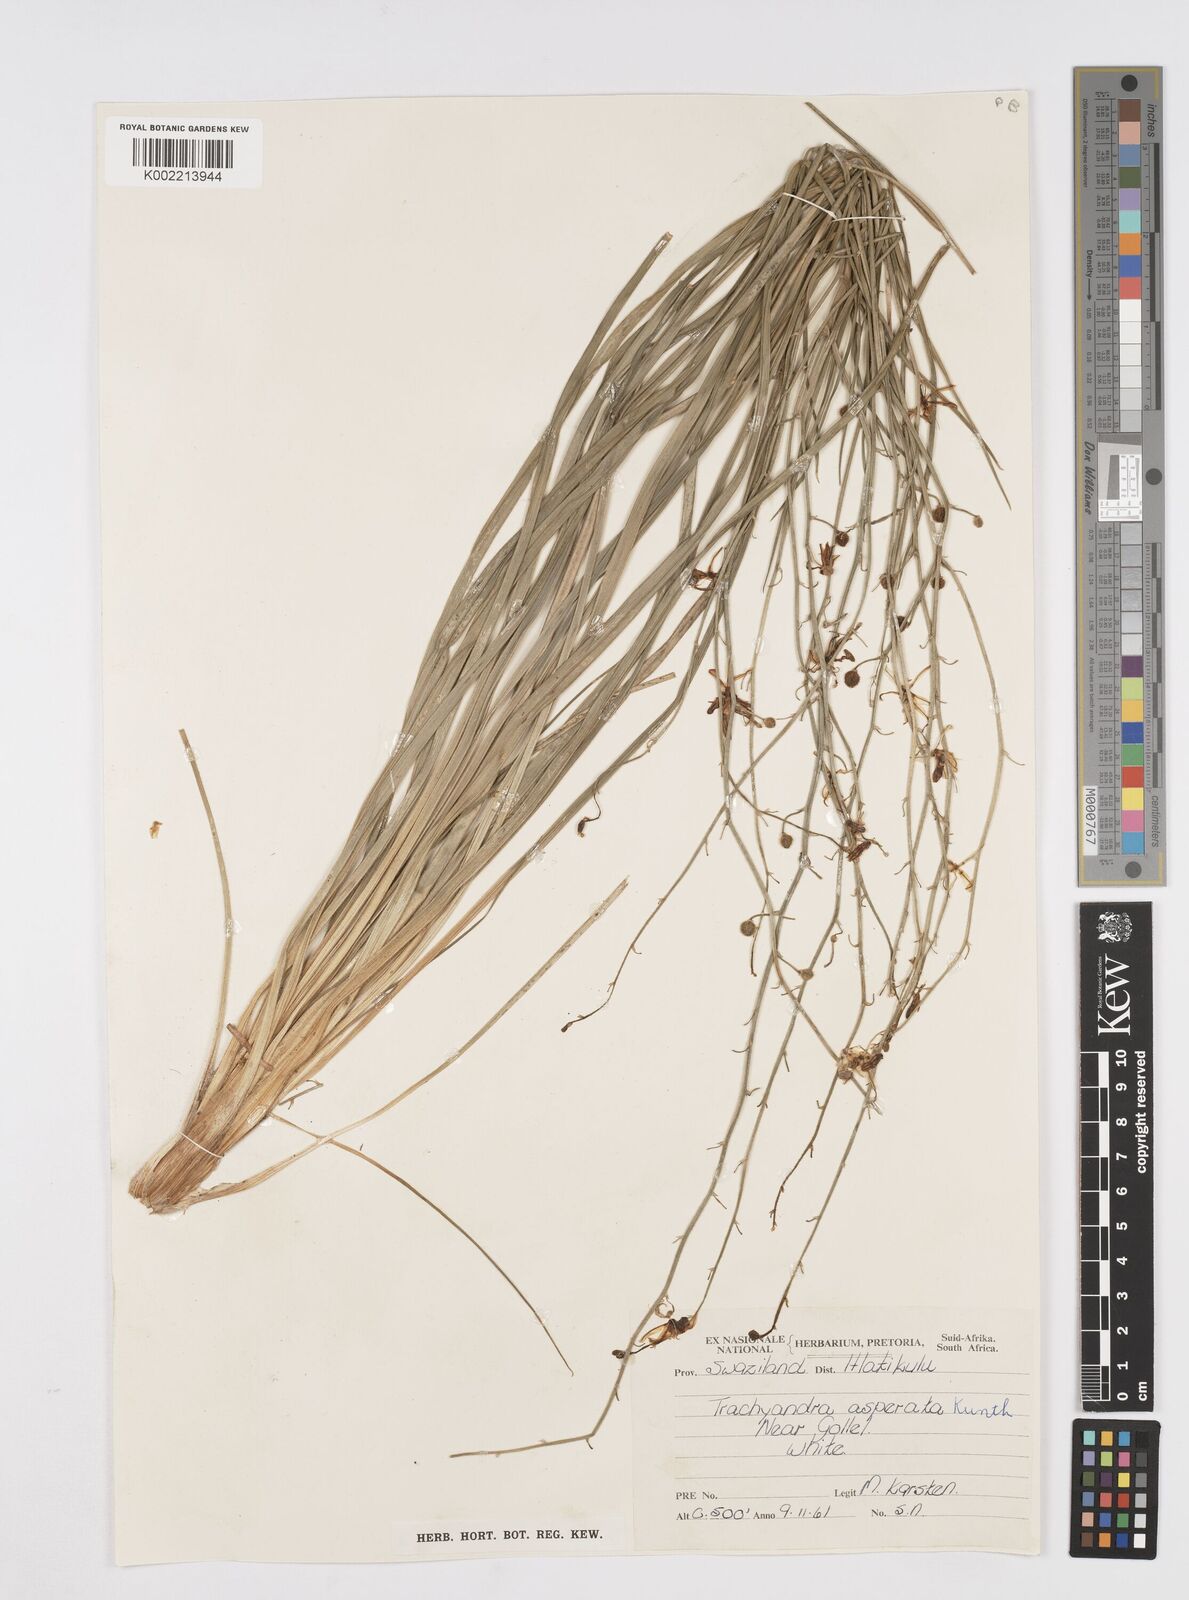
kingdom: Plantae
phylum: Tracheophyta
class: Liliopsida
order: Asparagales
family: Asphodelaceae
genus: Trachyandra
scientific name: Trachyandra asperata
